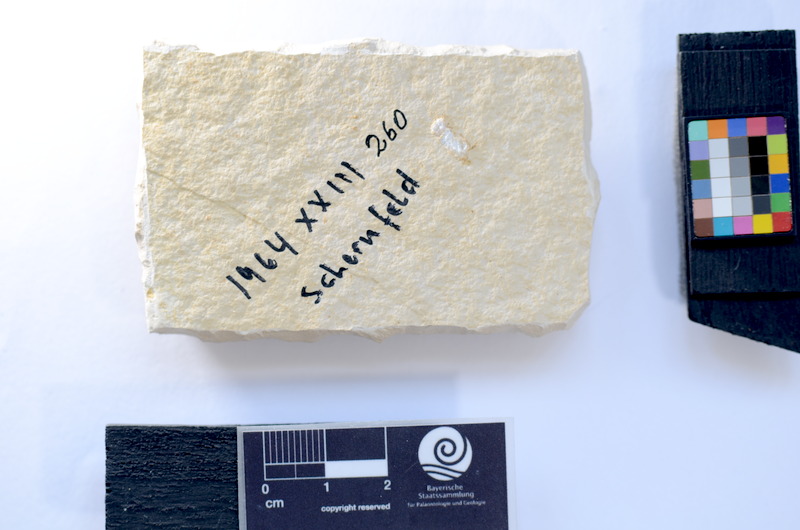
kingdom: Animalia
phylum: Chordata
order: Salmoniformes
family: Orthogonikleithridae
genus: Leptolepides
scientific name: Leptolepides
